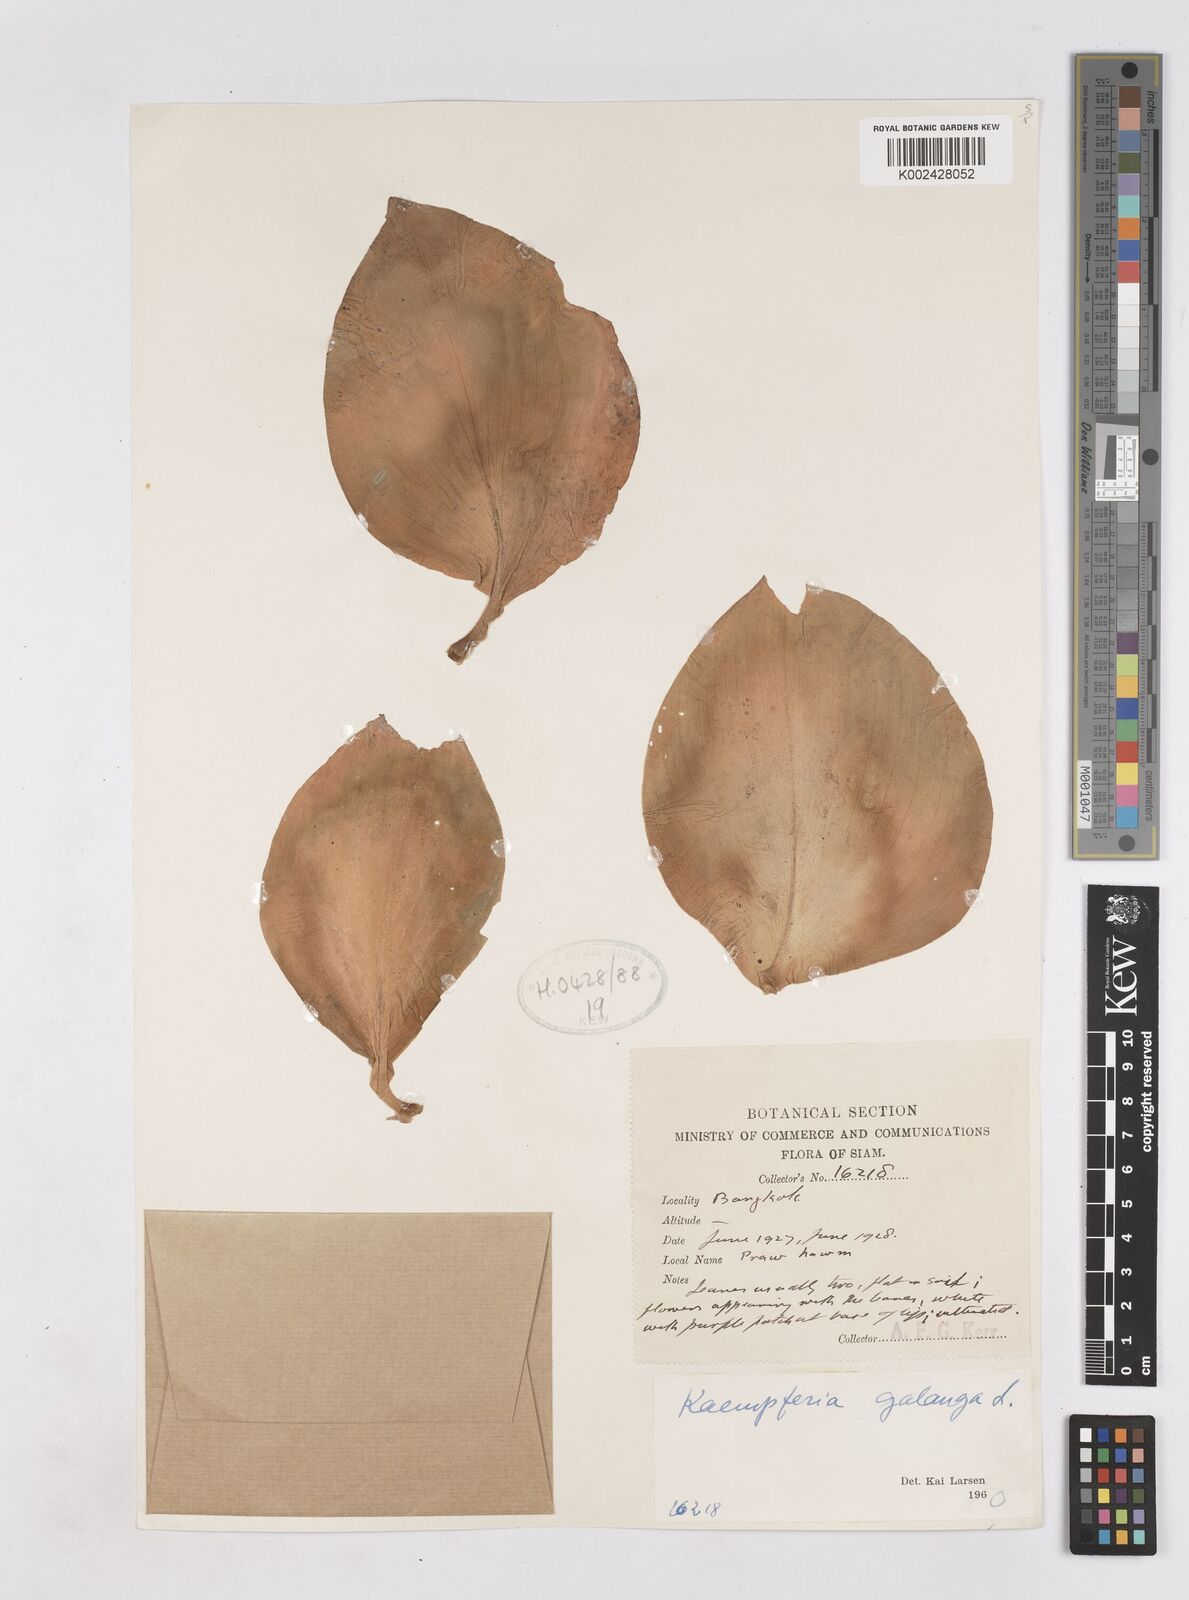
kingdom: Plantae
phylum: Tracheophyta
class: Liliopsida
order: Zingiberales
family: Zingiberaceae
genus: Kaempferia
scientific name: Kaempferia galanga
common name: Aromatic ginger
